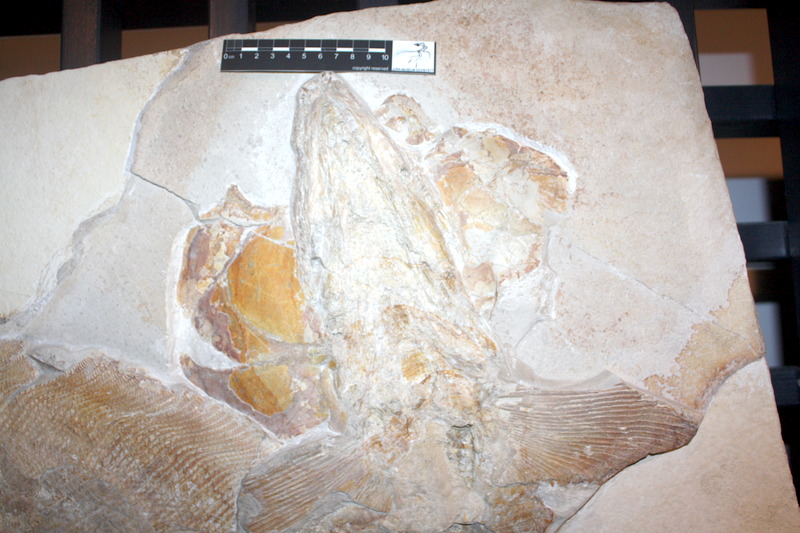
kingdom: Animalia
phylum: Chordata
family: Pachycormidae
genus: Sauropsis
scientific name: Sauropsis
